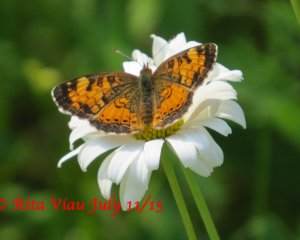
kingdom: Animalia
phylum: Arthropoda
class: Insecta
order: Lepidoptera
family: Nymphalidae
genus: Phyciodes
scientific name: Phyciodes tharos
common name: Northern Crescent
